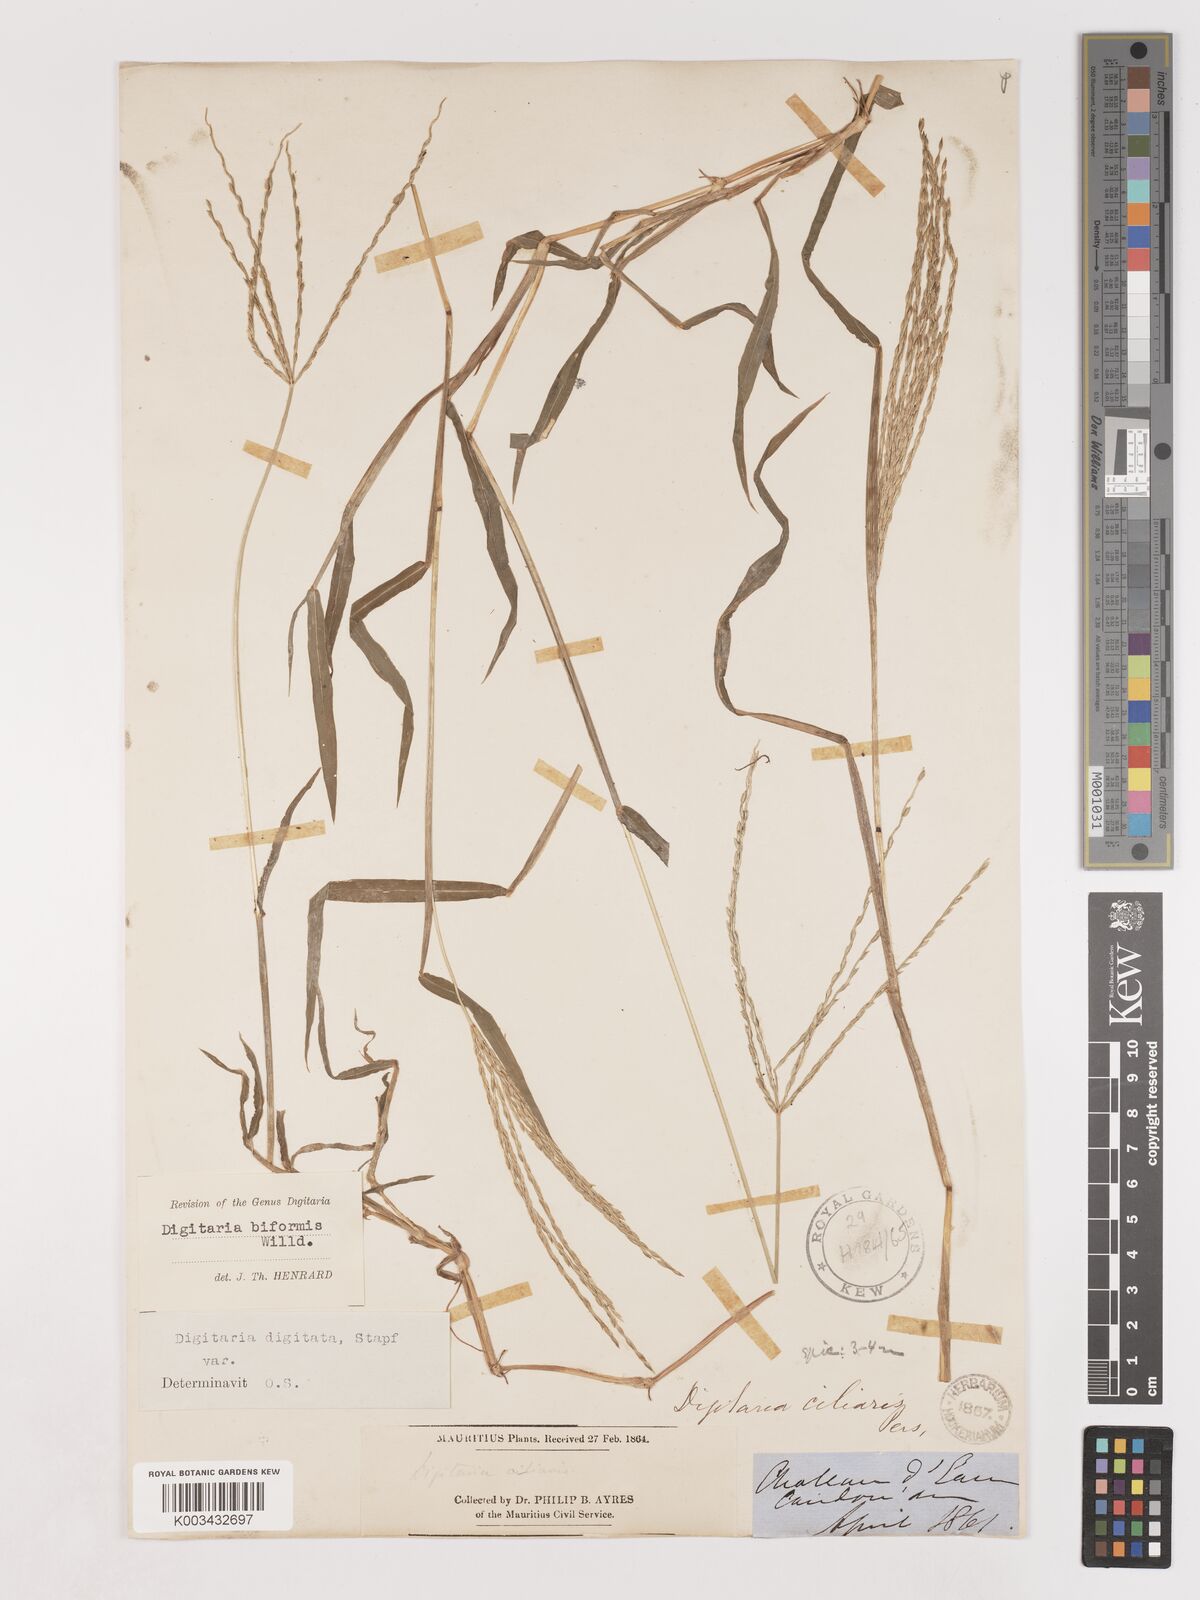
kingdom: Plantae
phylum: Tracheophyta
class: Liliopsida
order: Poales
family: Poaceae
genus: Digitaria
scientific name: Digitaria ciliaris
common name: Tropical finger-grass
